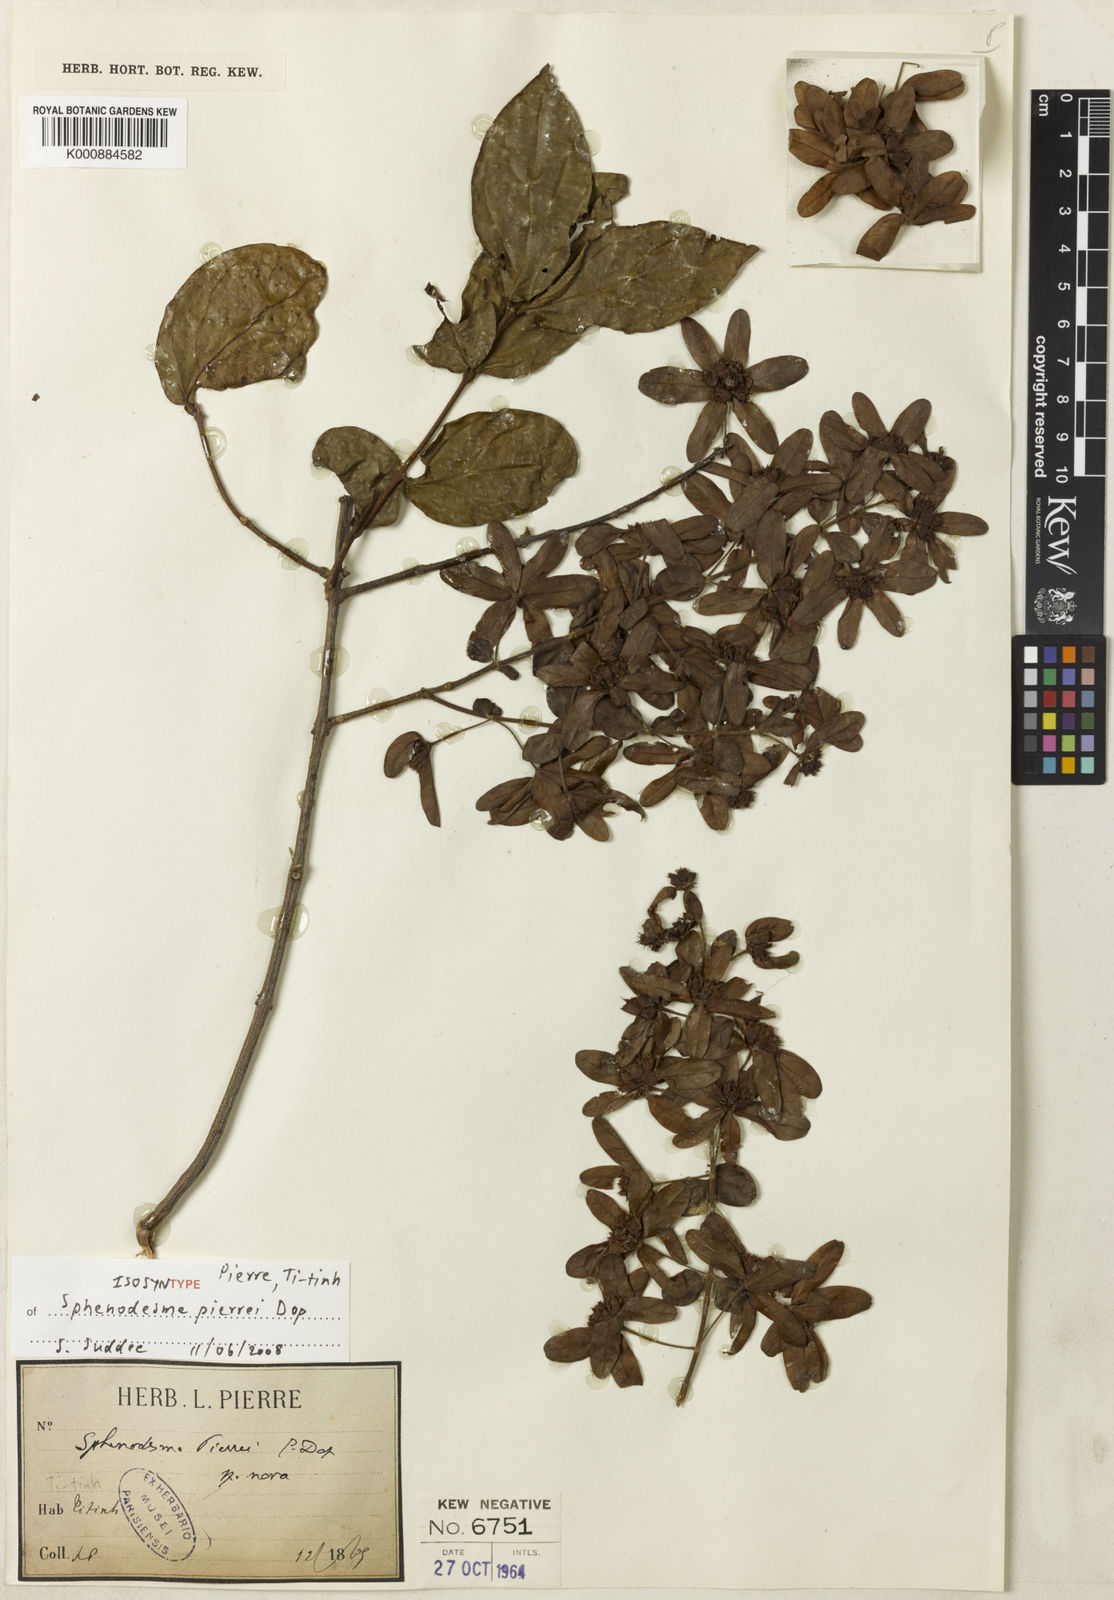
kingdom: Plantae
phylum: Tracheophyta
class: Magnoliopsida
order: Lamiales
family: Lamiaceae
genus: Sphenodesme
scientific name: Sphenodesme mekongensis
